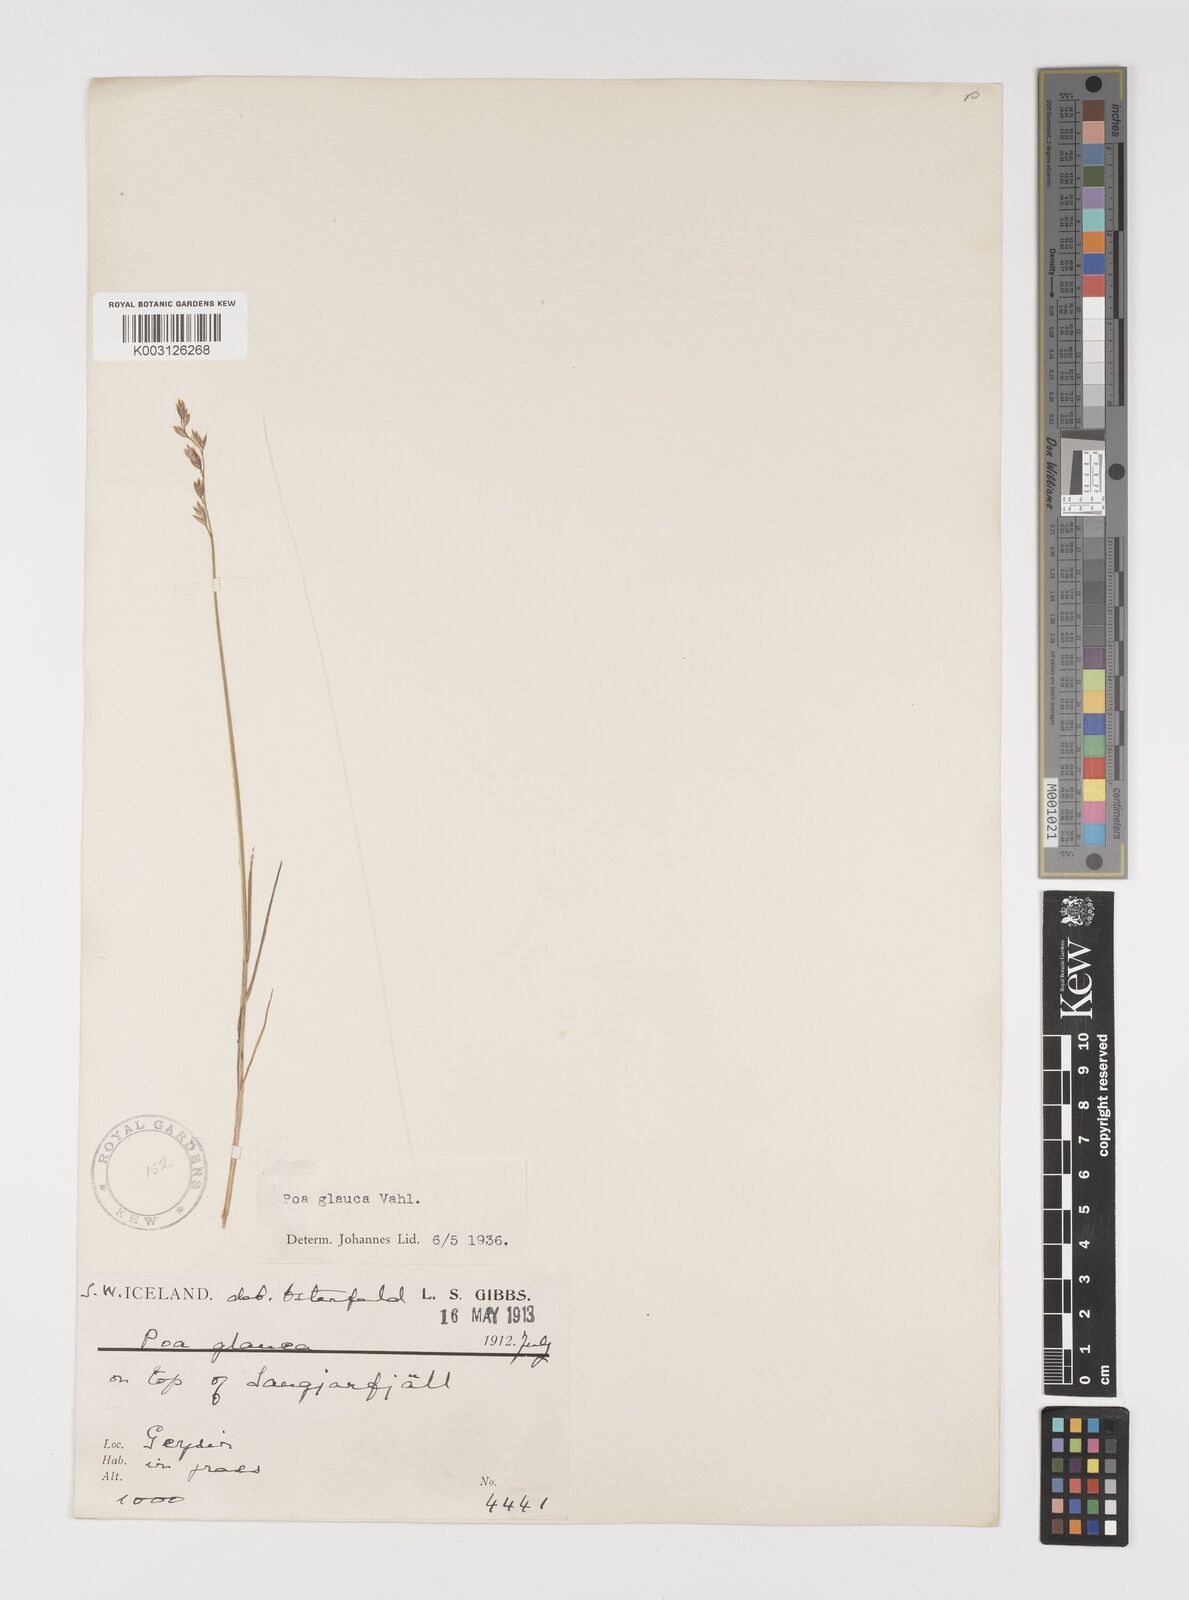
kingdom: Plantae
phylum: Tracheophyta
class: Liliopsida
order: Poales
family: Poaceae
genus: Poa
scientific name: Poa glauca
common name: Glaucous bluegrass
